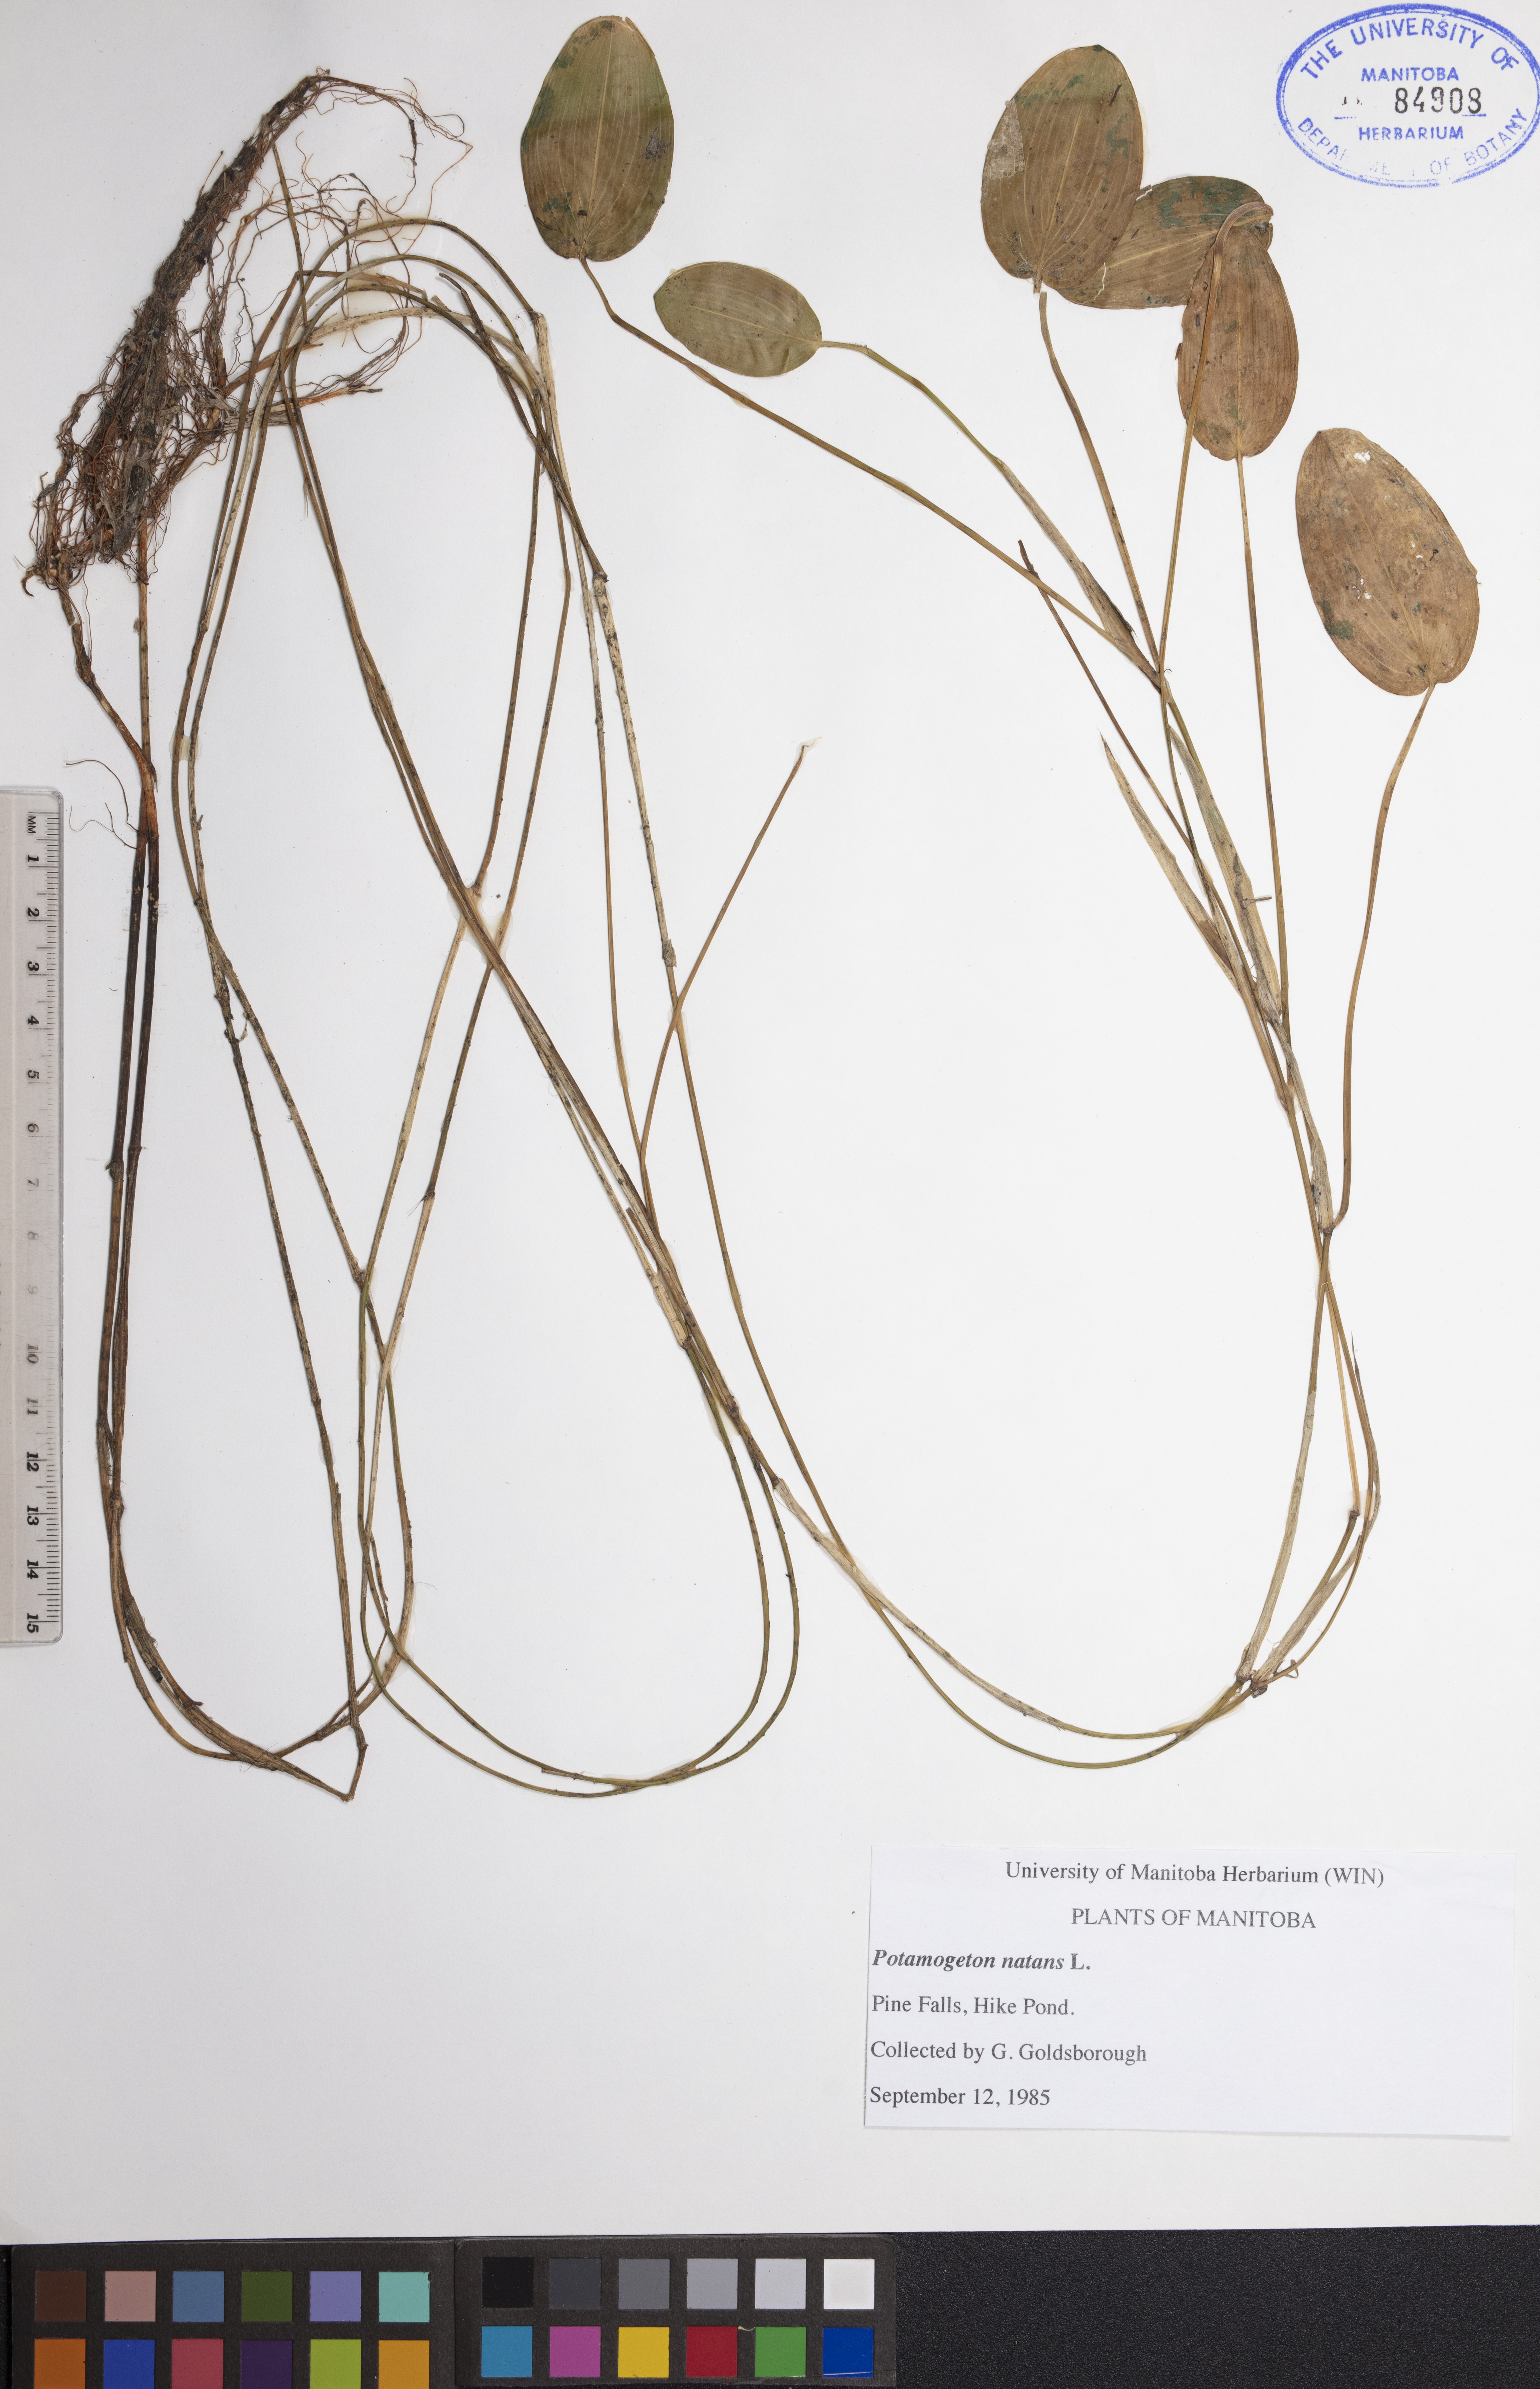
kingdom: Plantae
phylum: Tracheophyta
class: Liliopsida
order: Alismatales
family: Potamogetonaceae
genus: Potamogeton
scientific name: Potamogeton natans
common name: Broad-leaved pondweed
